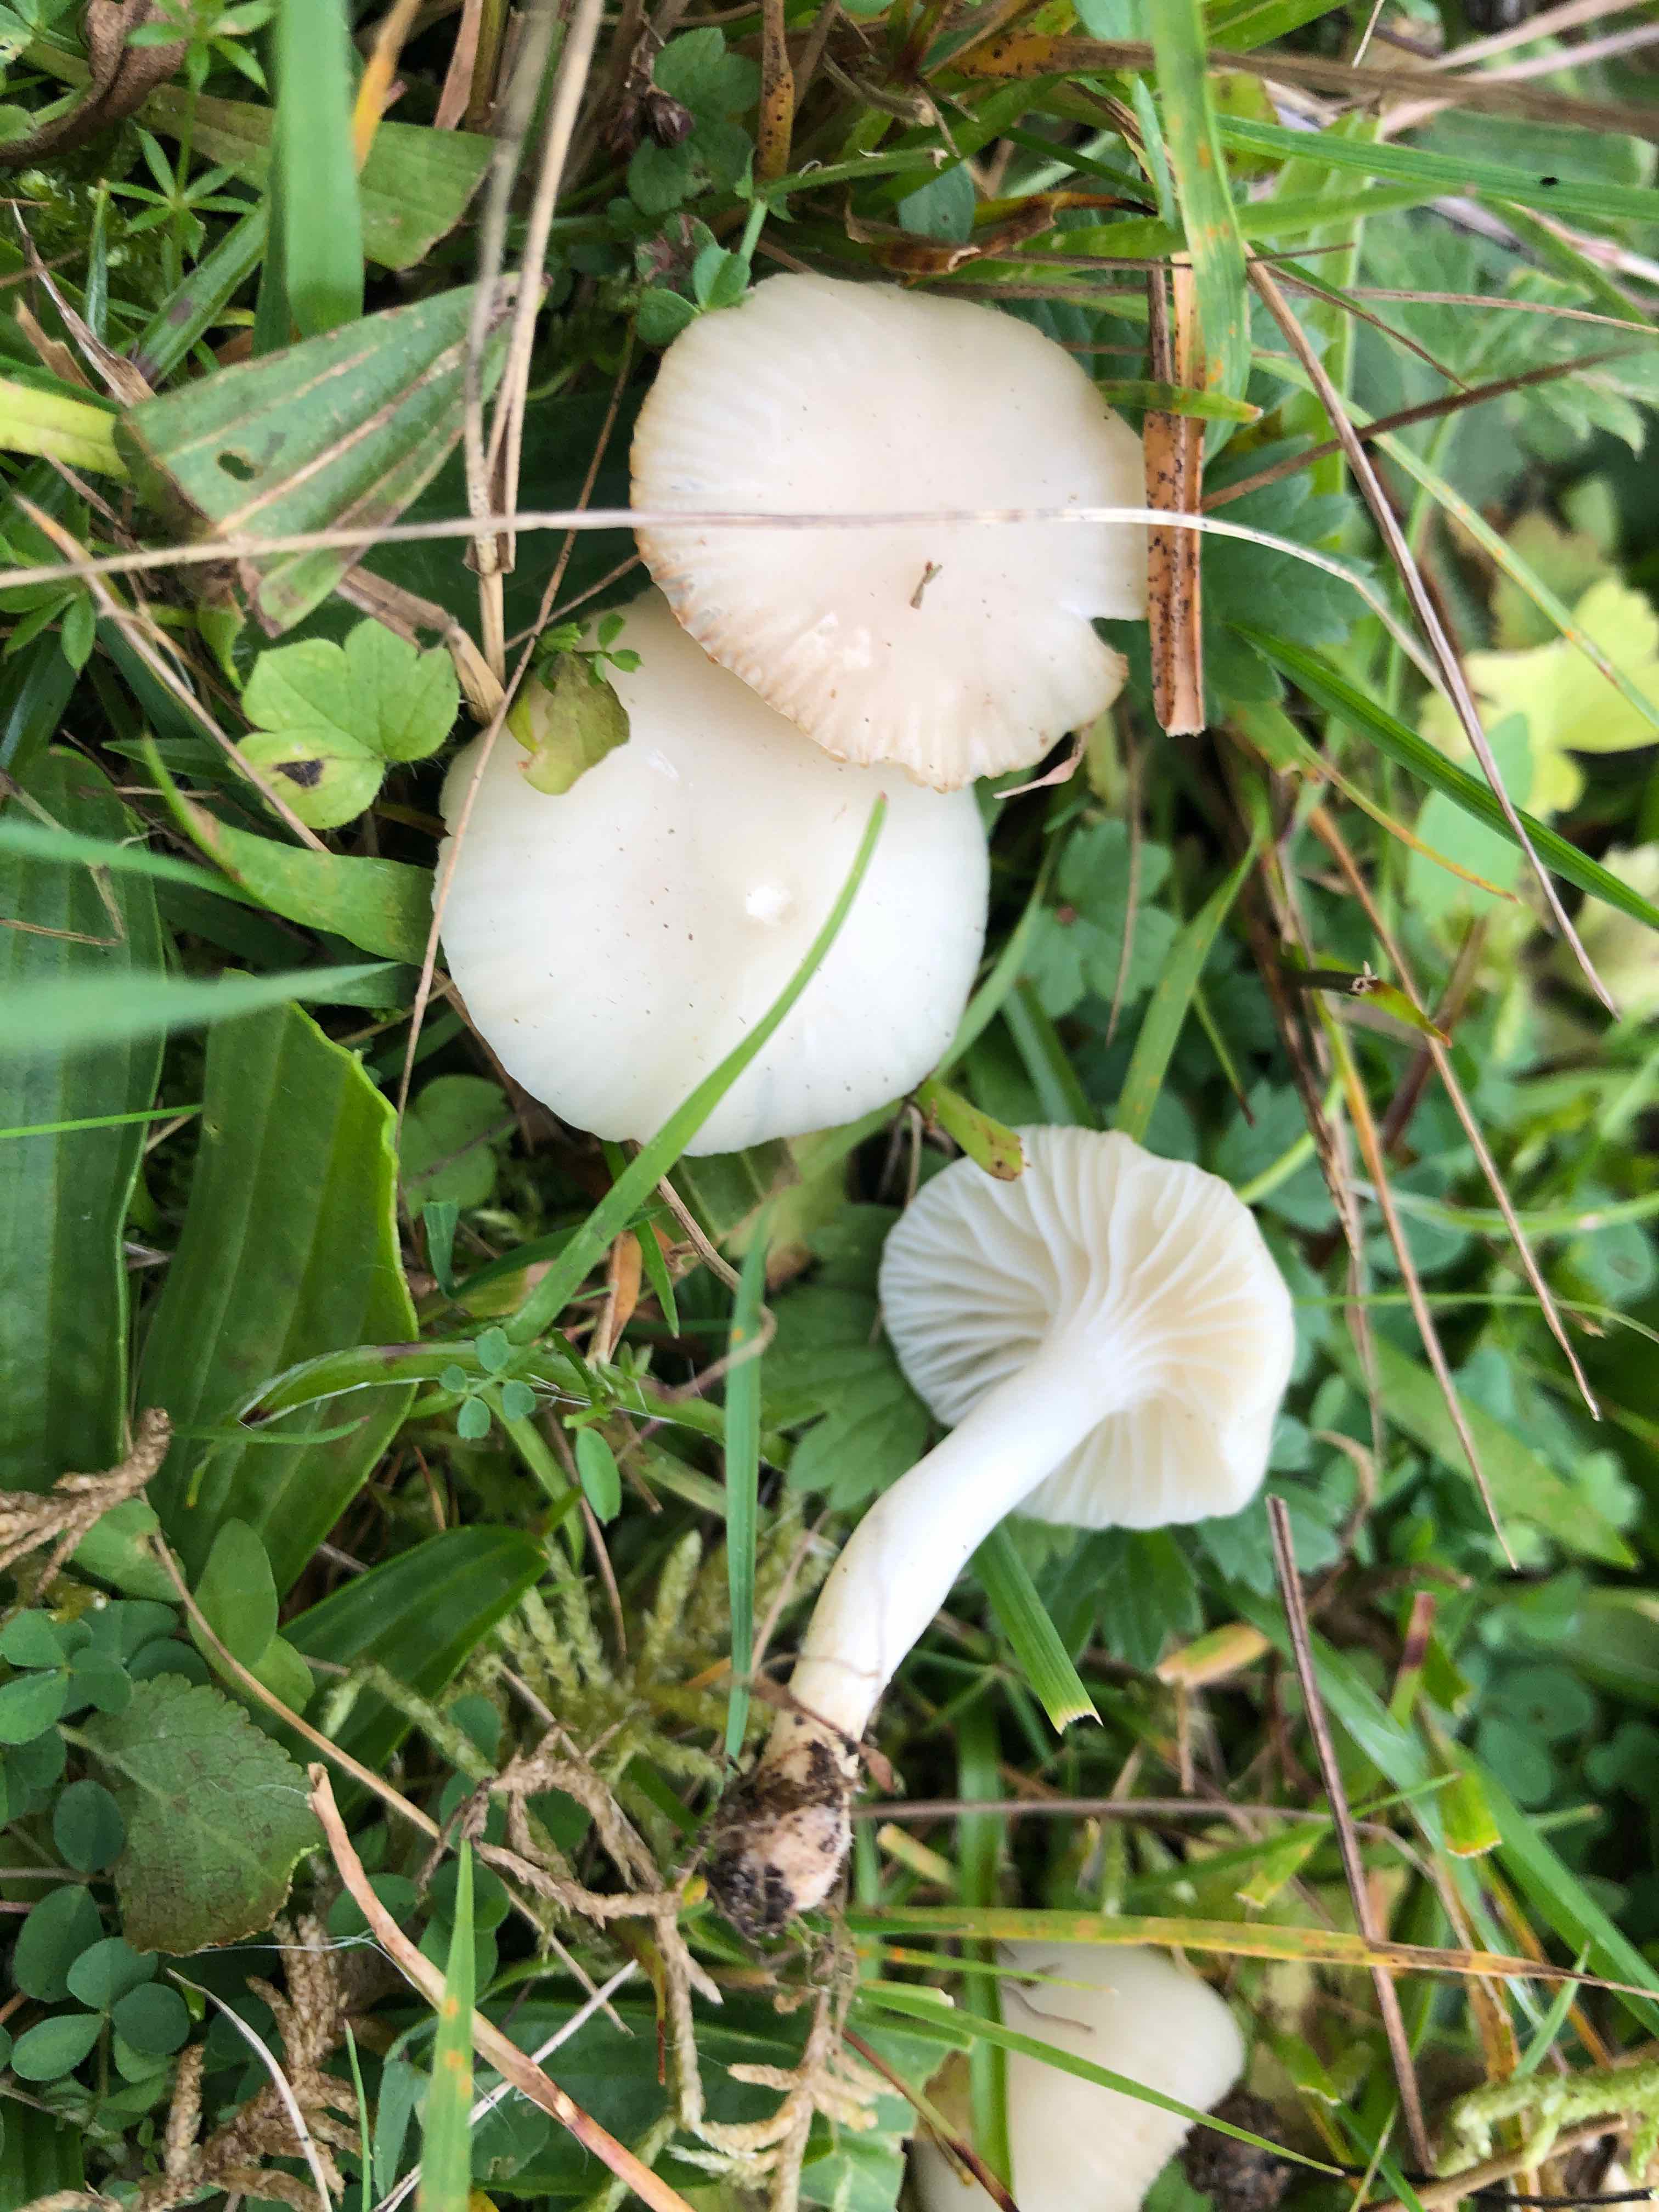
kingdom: Fungi
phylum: Basidiomycota
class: Agaricomycetes
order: Agaricales
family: Hygrophoraceae
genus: Cuphophyllus
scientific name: Cuphophyllus virgineus
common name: snehvid vokshat
